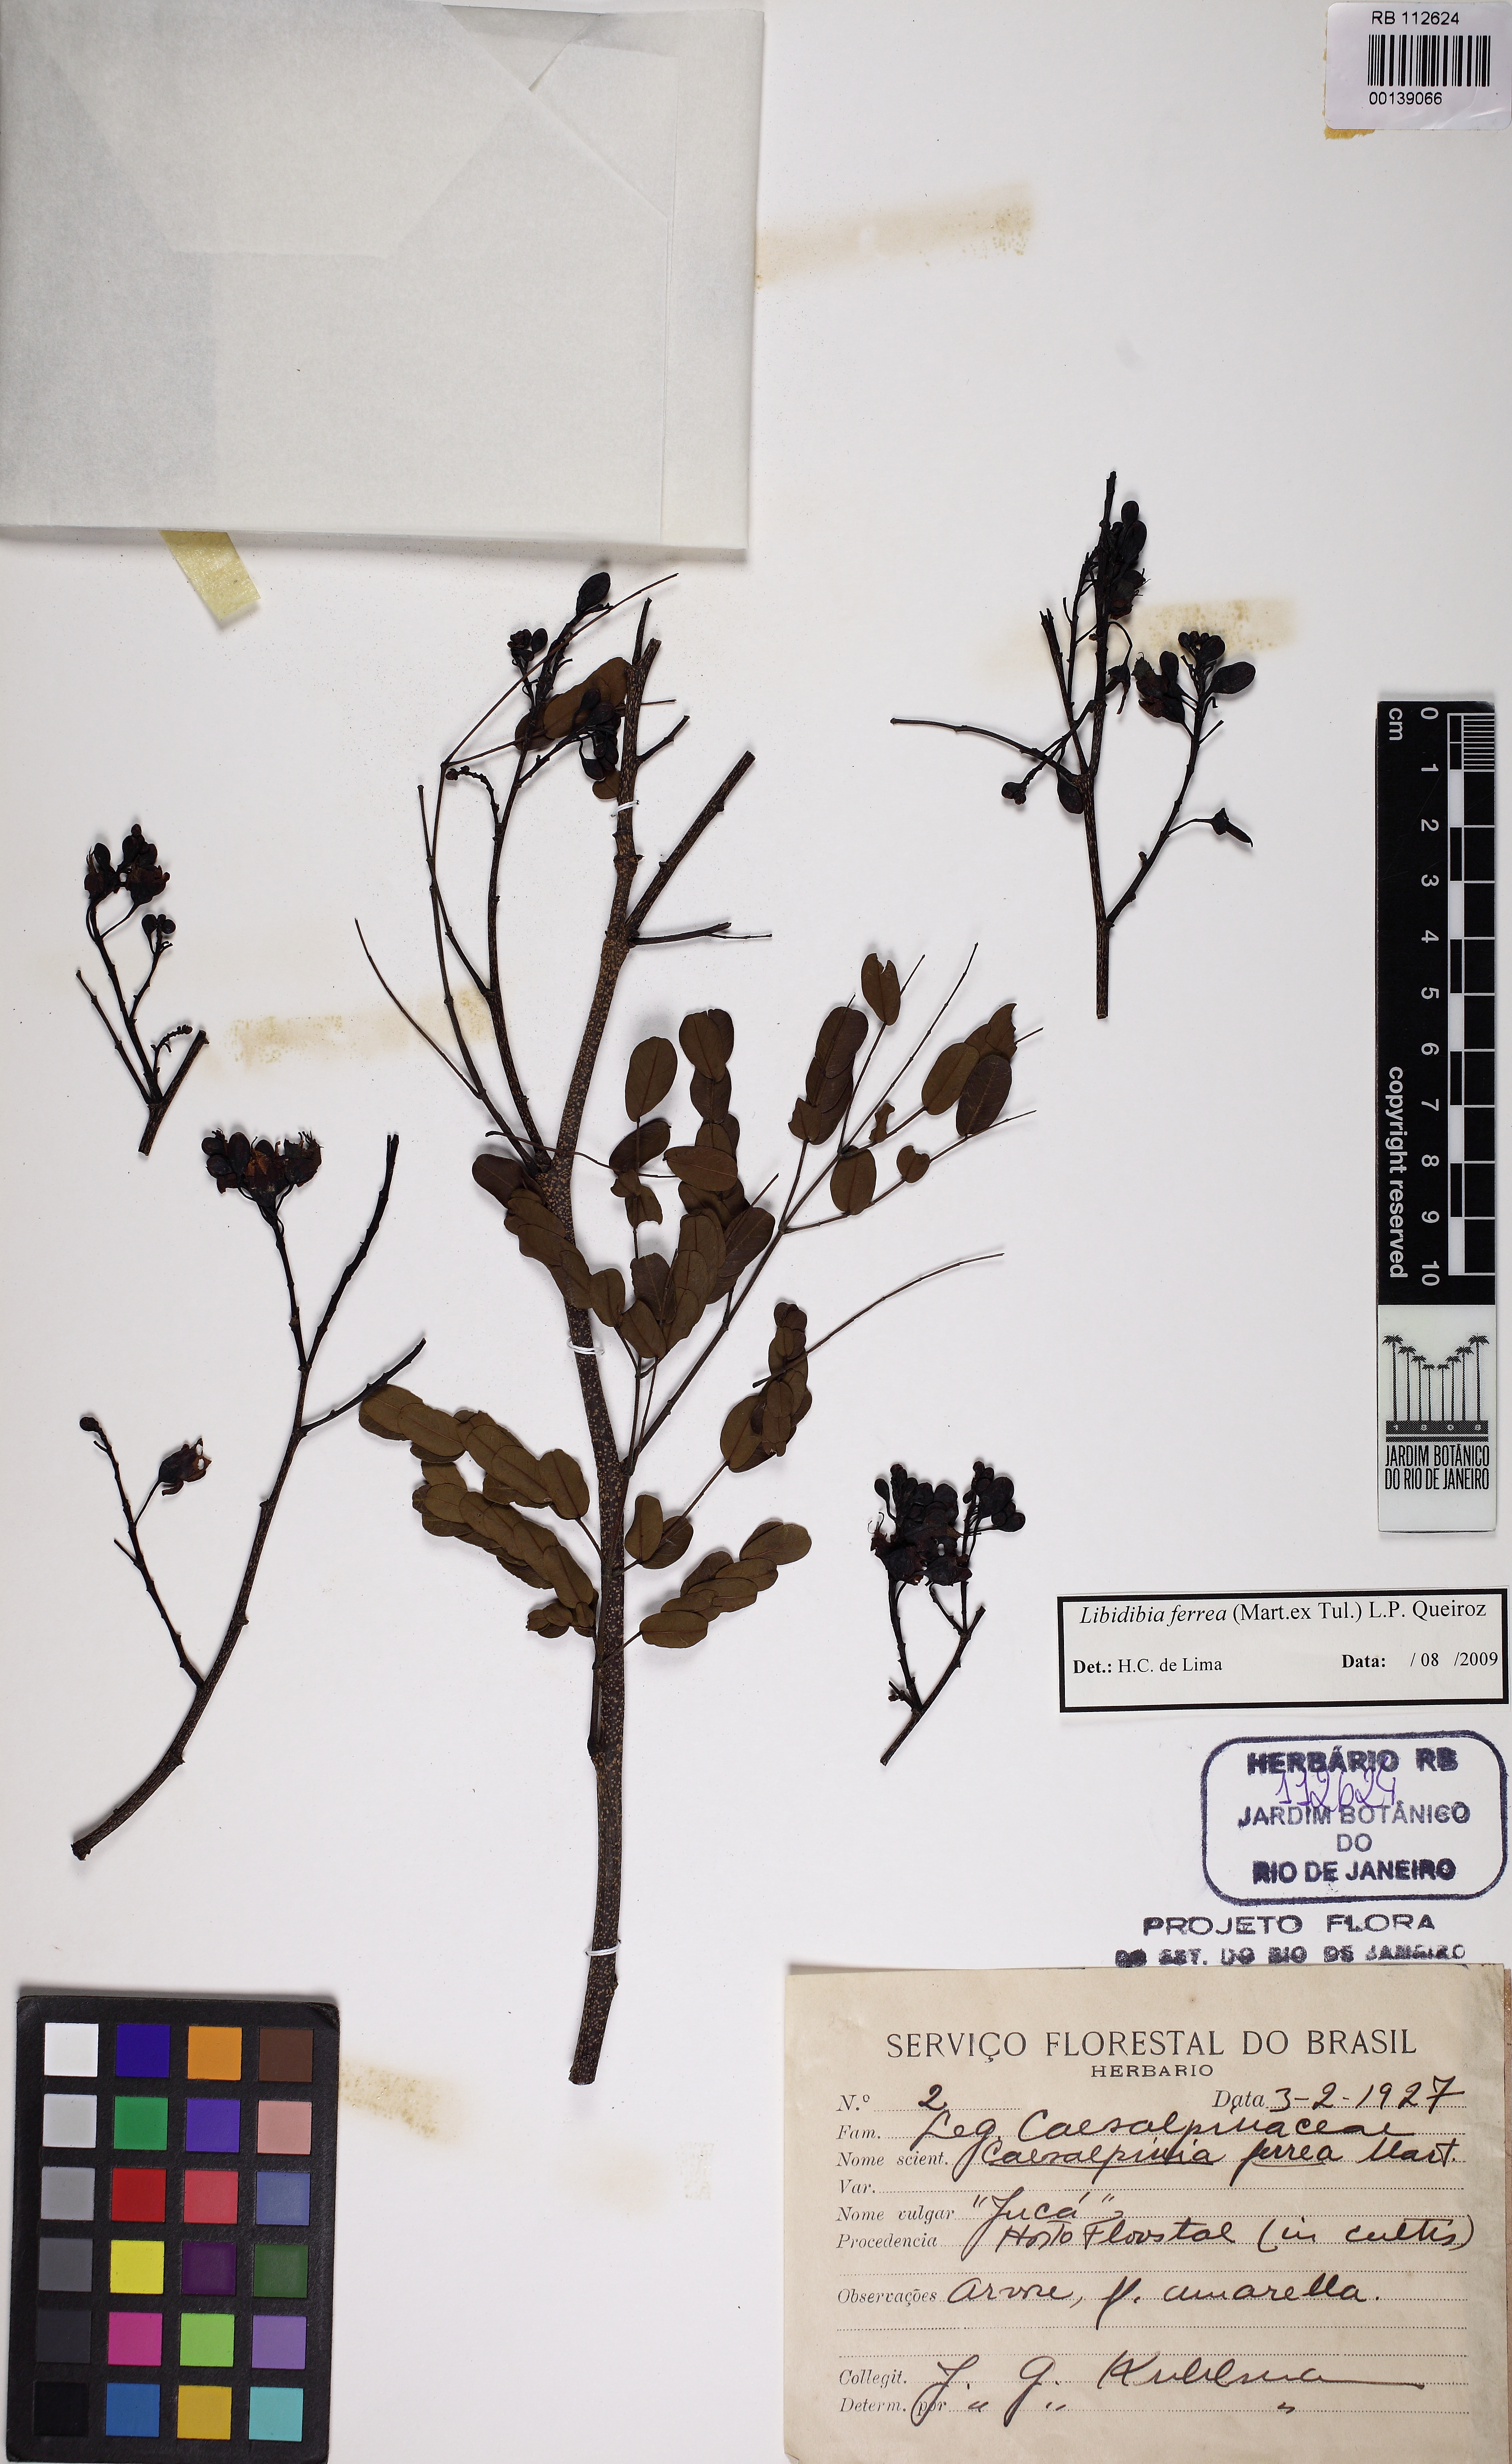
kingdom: Plantae
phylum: Tracheophyta
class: Magnoliopsida
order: Fabales
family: Fabaceae
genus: Libidibia
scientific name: Libidibia ferrea
